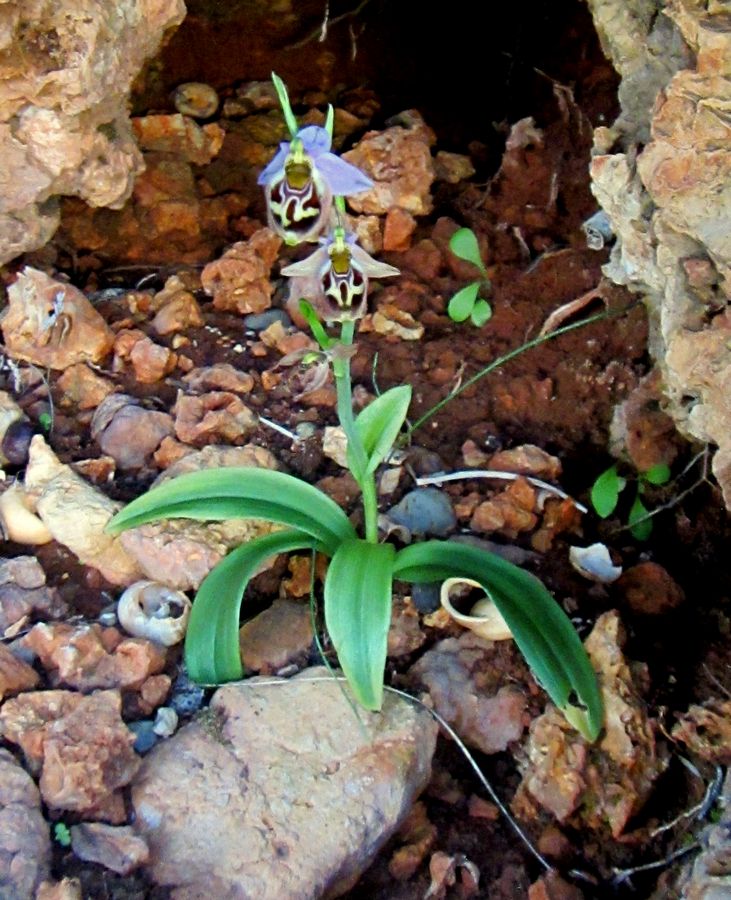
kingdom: Plantae
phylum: Tracheophyta
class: Liliopsida
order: Asparagales
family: Orchidaceae
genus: Ophrys
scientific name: Ophrys bornmuelleri
